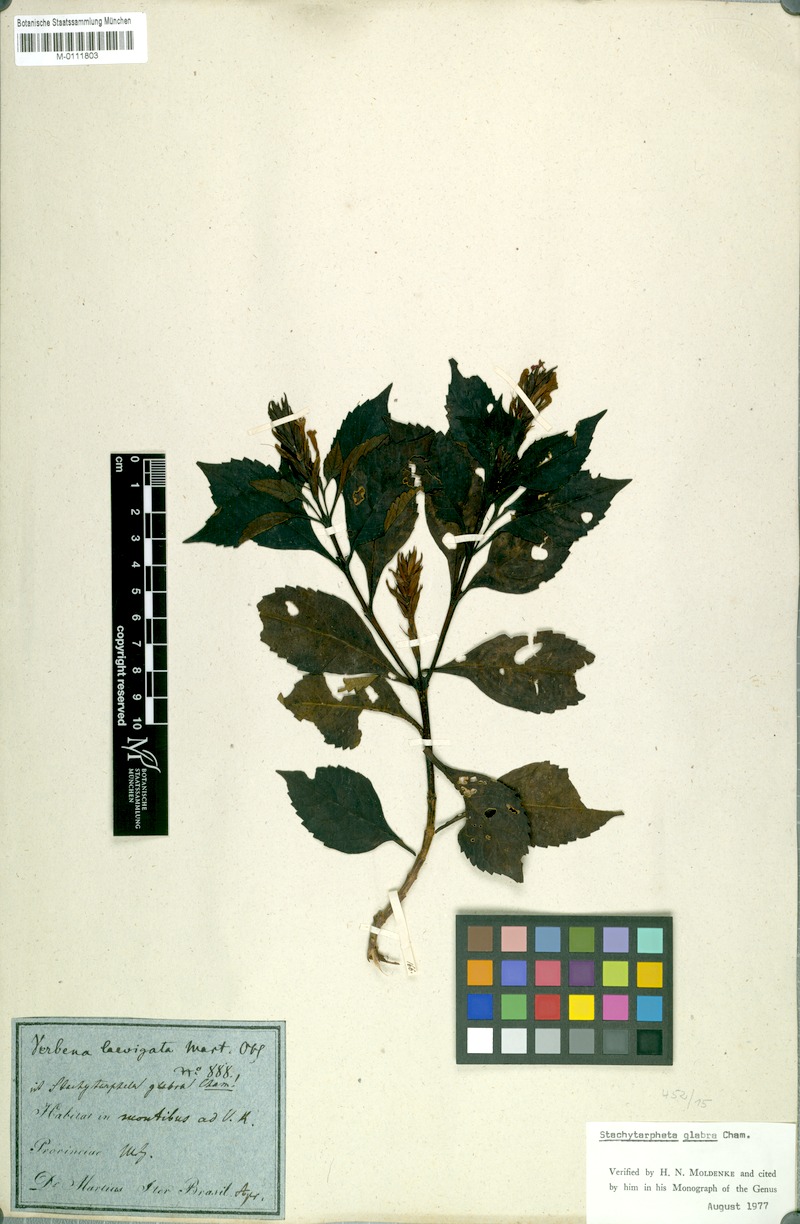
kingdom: Plantae
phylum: Tracheophyta
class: Magnoliopsida
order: Lamiales
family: Verbenaceae
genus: Stachytarpheta
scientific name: Stachytarpheta glabra
